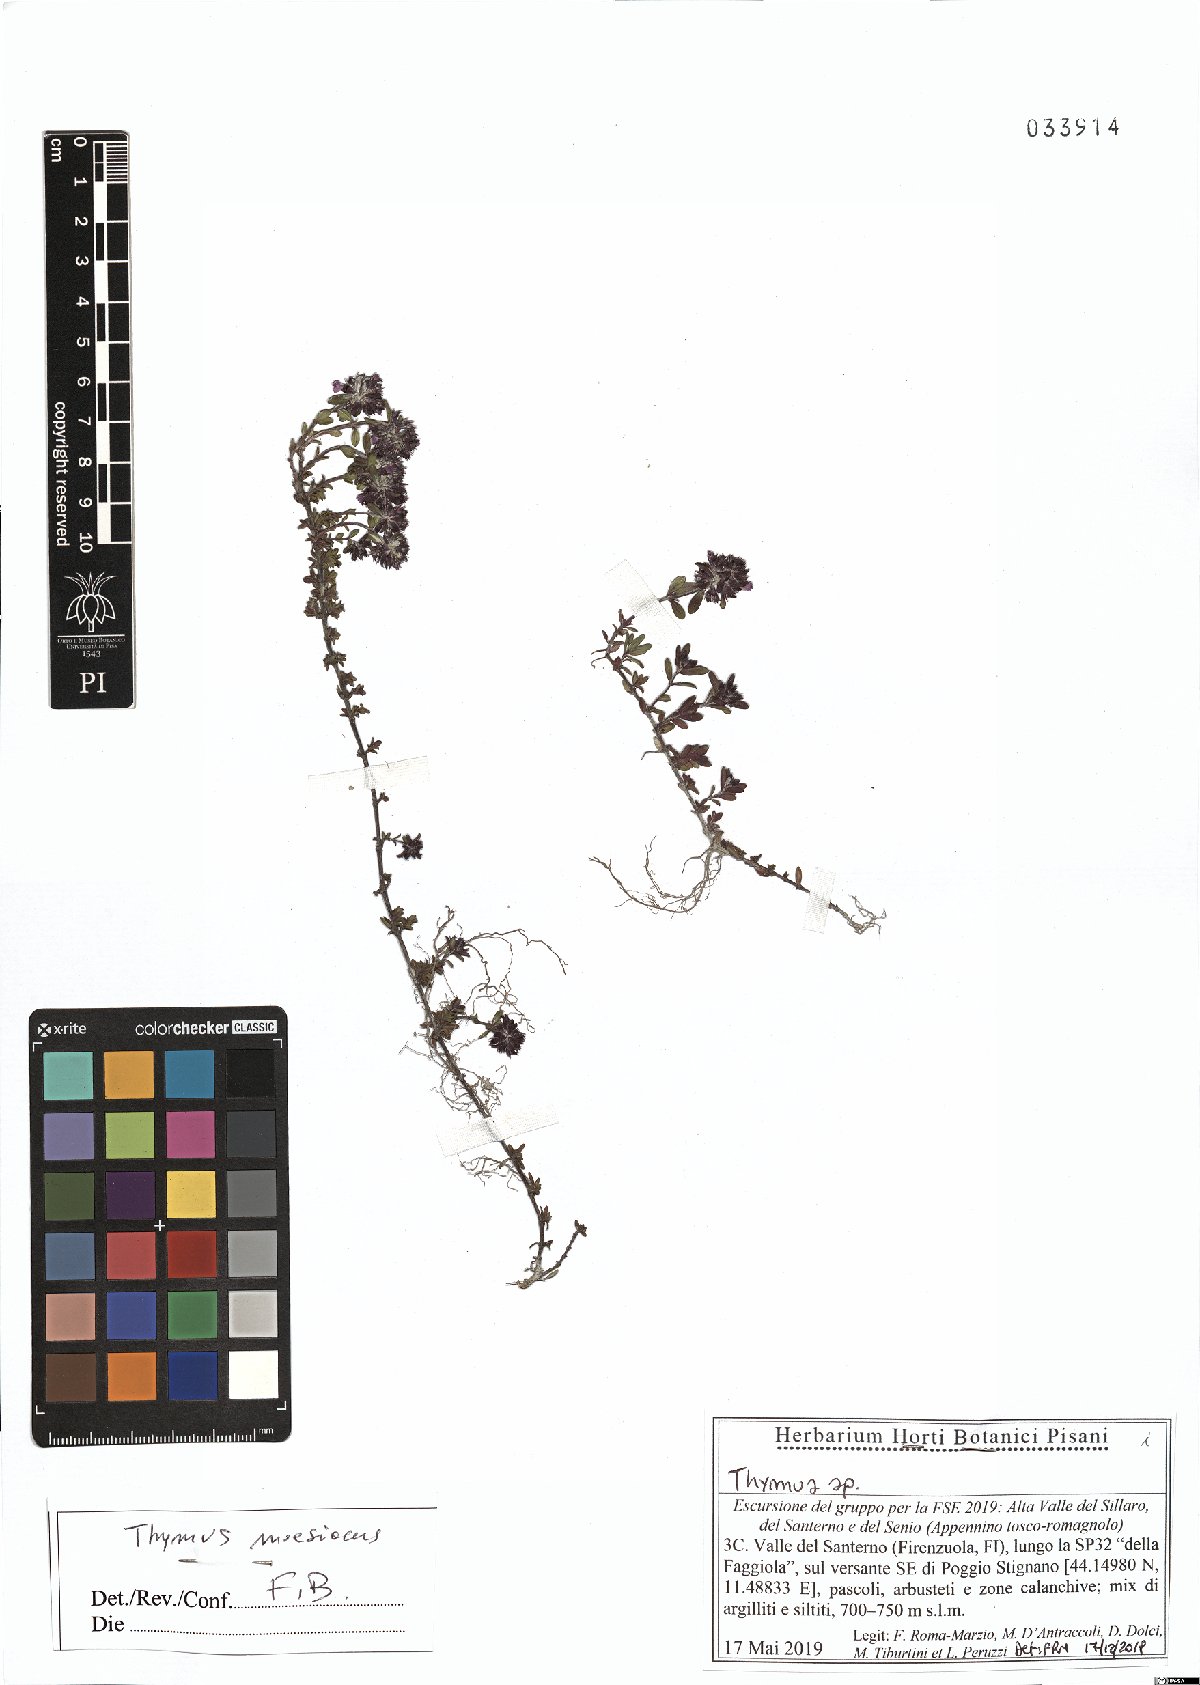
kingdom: Plantae
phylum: Tracheophyta
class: Magnoliopsida
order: Lamiales
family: Lamiaceae
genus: Thymus
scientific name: Thymus longicaulis
